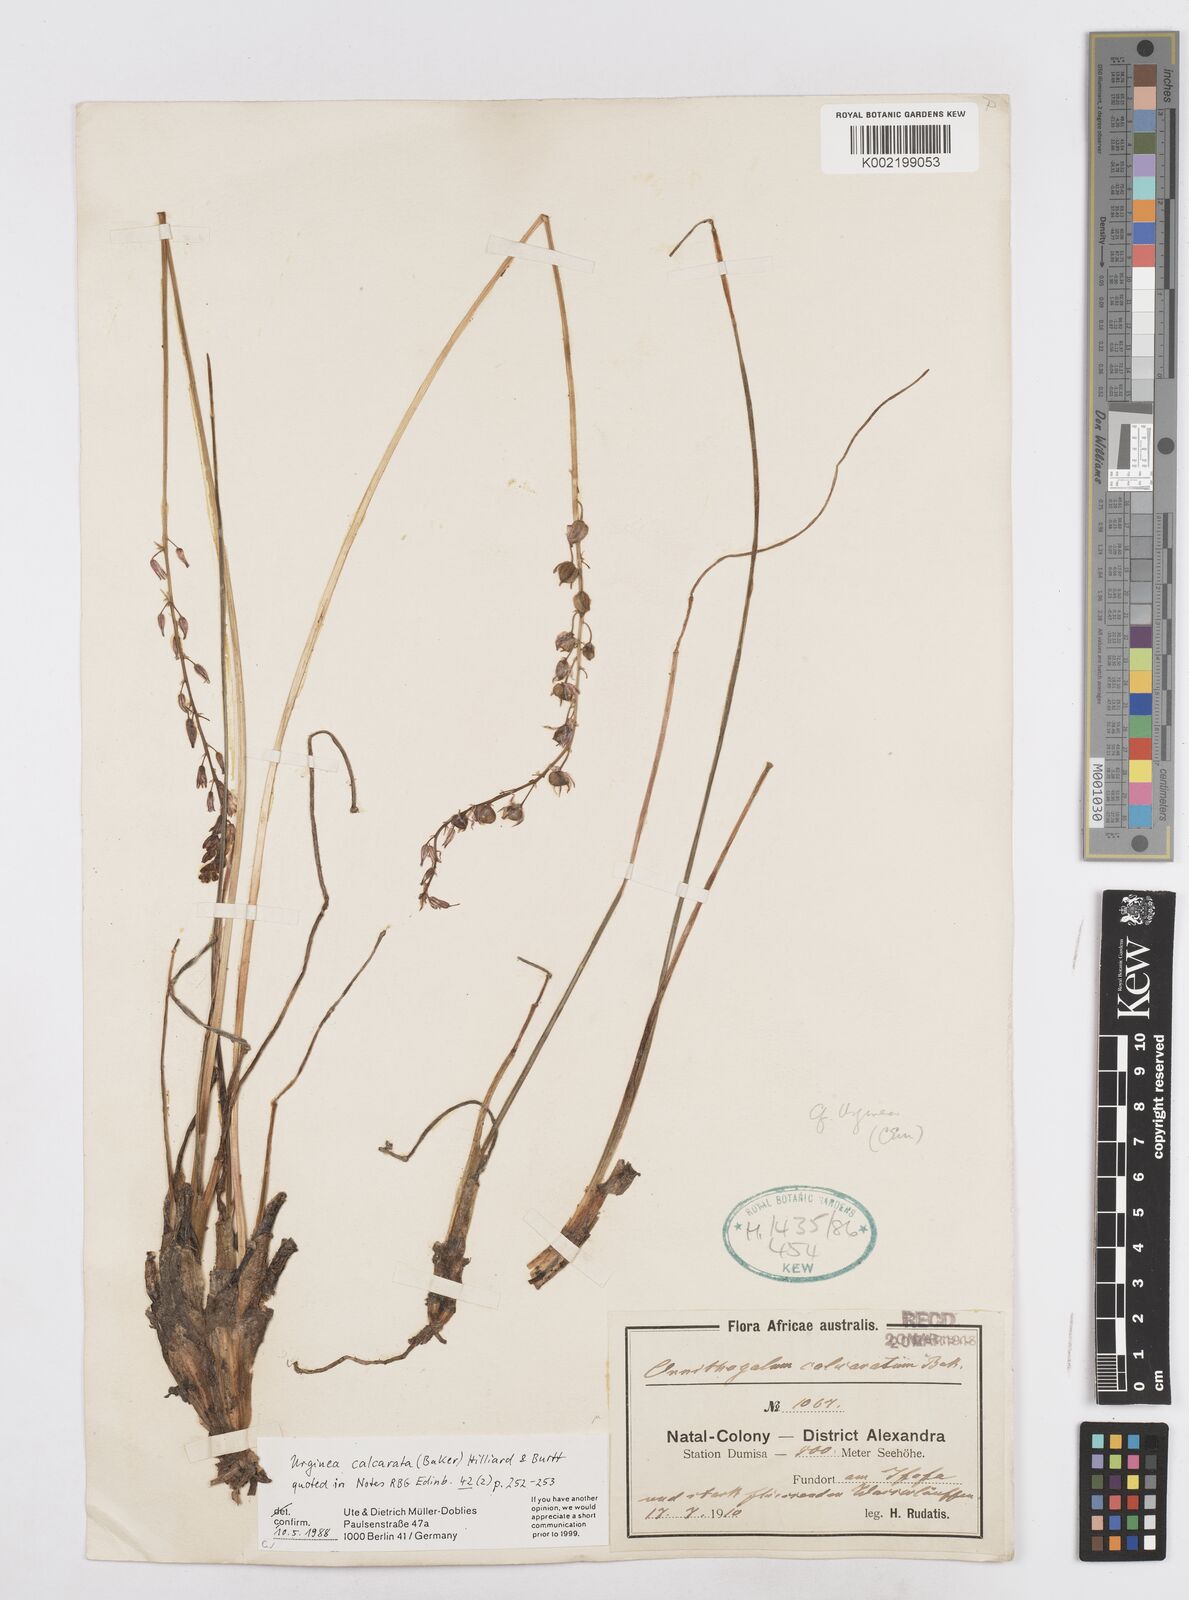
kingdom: Plantae
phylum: Tracheophyta
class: Liliopsida
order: Asparagales
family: Asparagaceae
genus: Drimia
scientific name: Drimia calcarata
